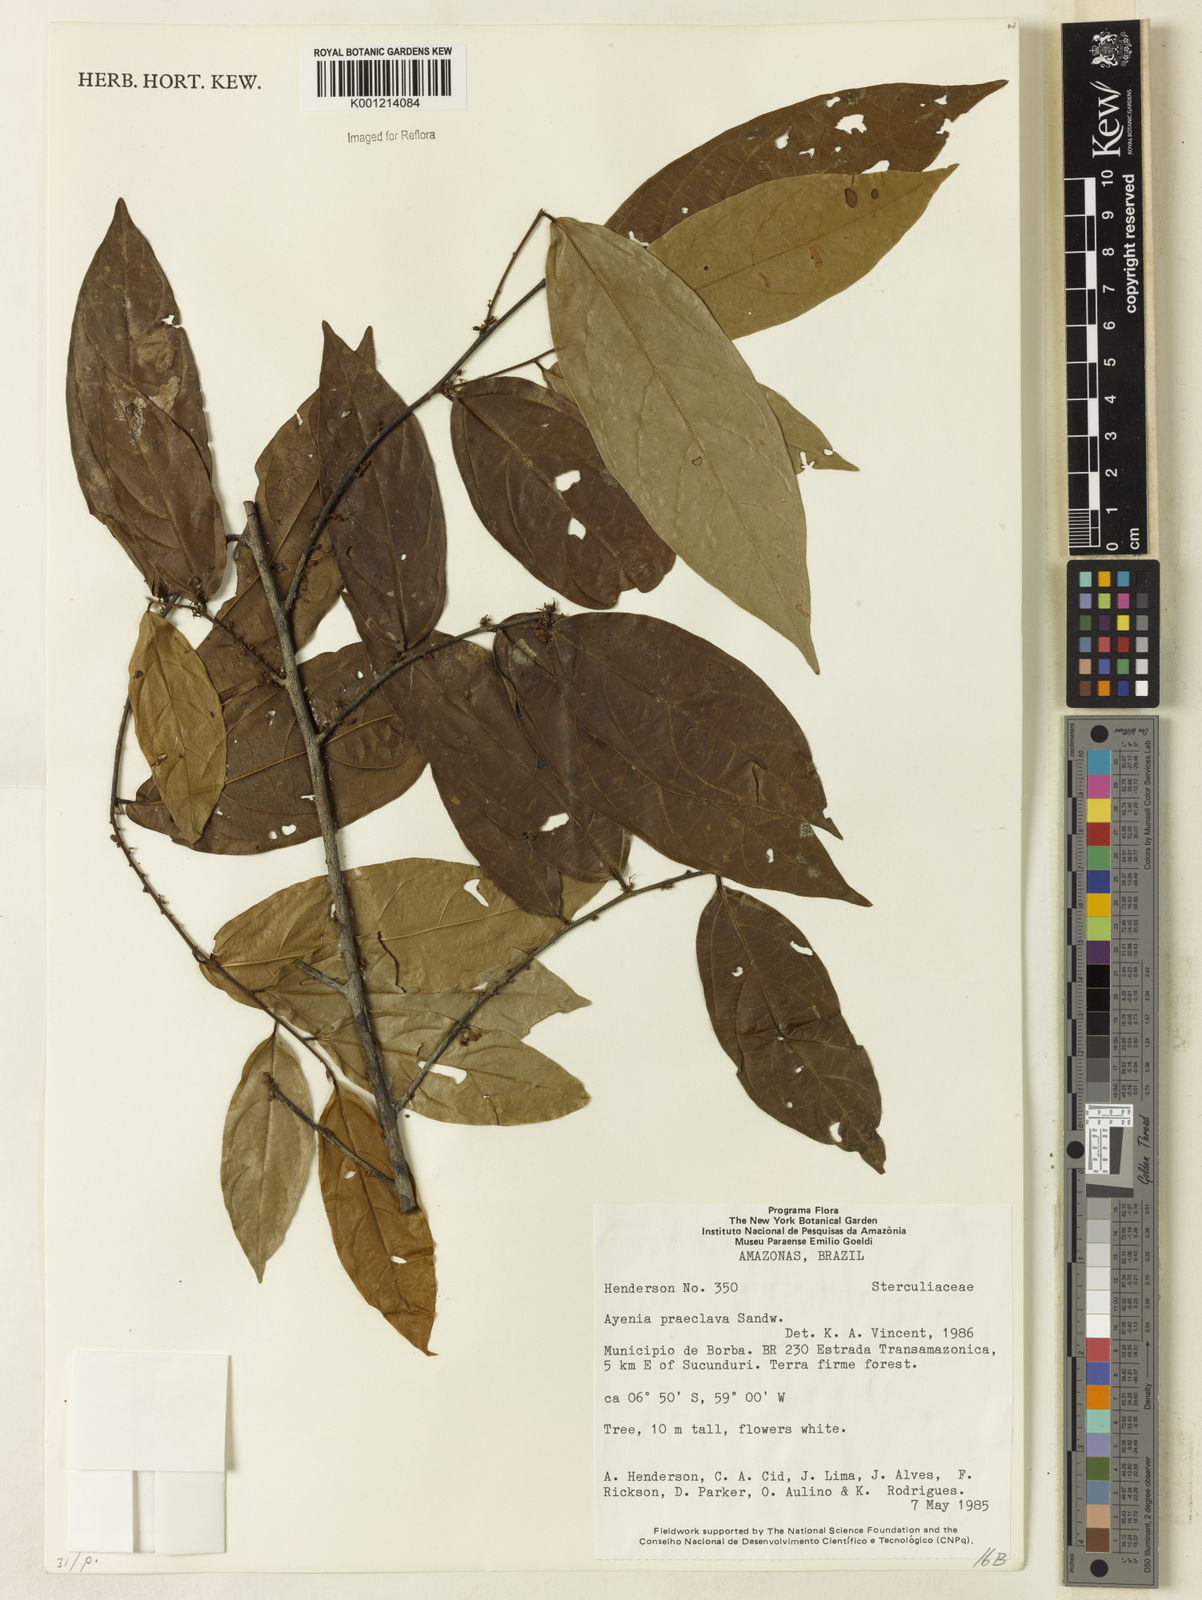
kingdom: Plantae
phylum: Tracheophyta
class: Magnoliopsida
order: Malvales
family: Malvaceae
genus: Ayenia
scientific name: Ayenia praeclara
